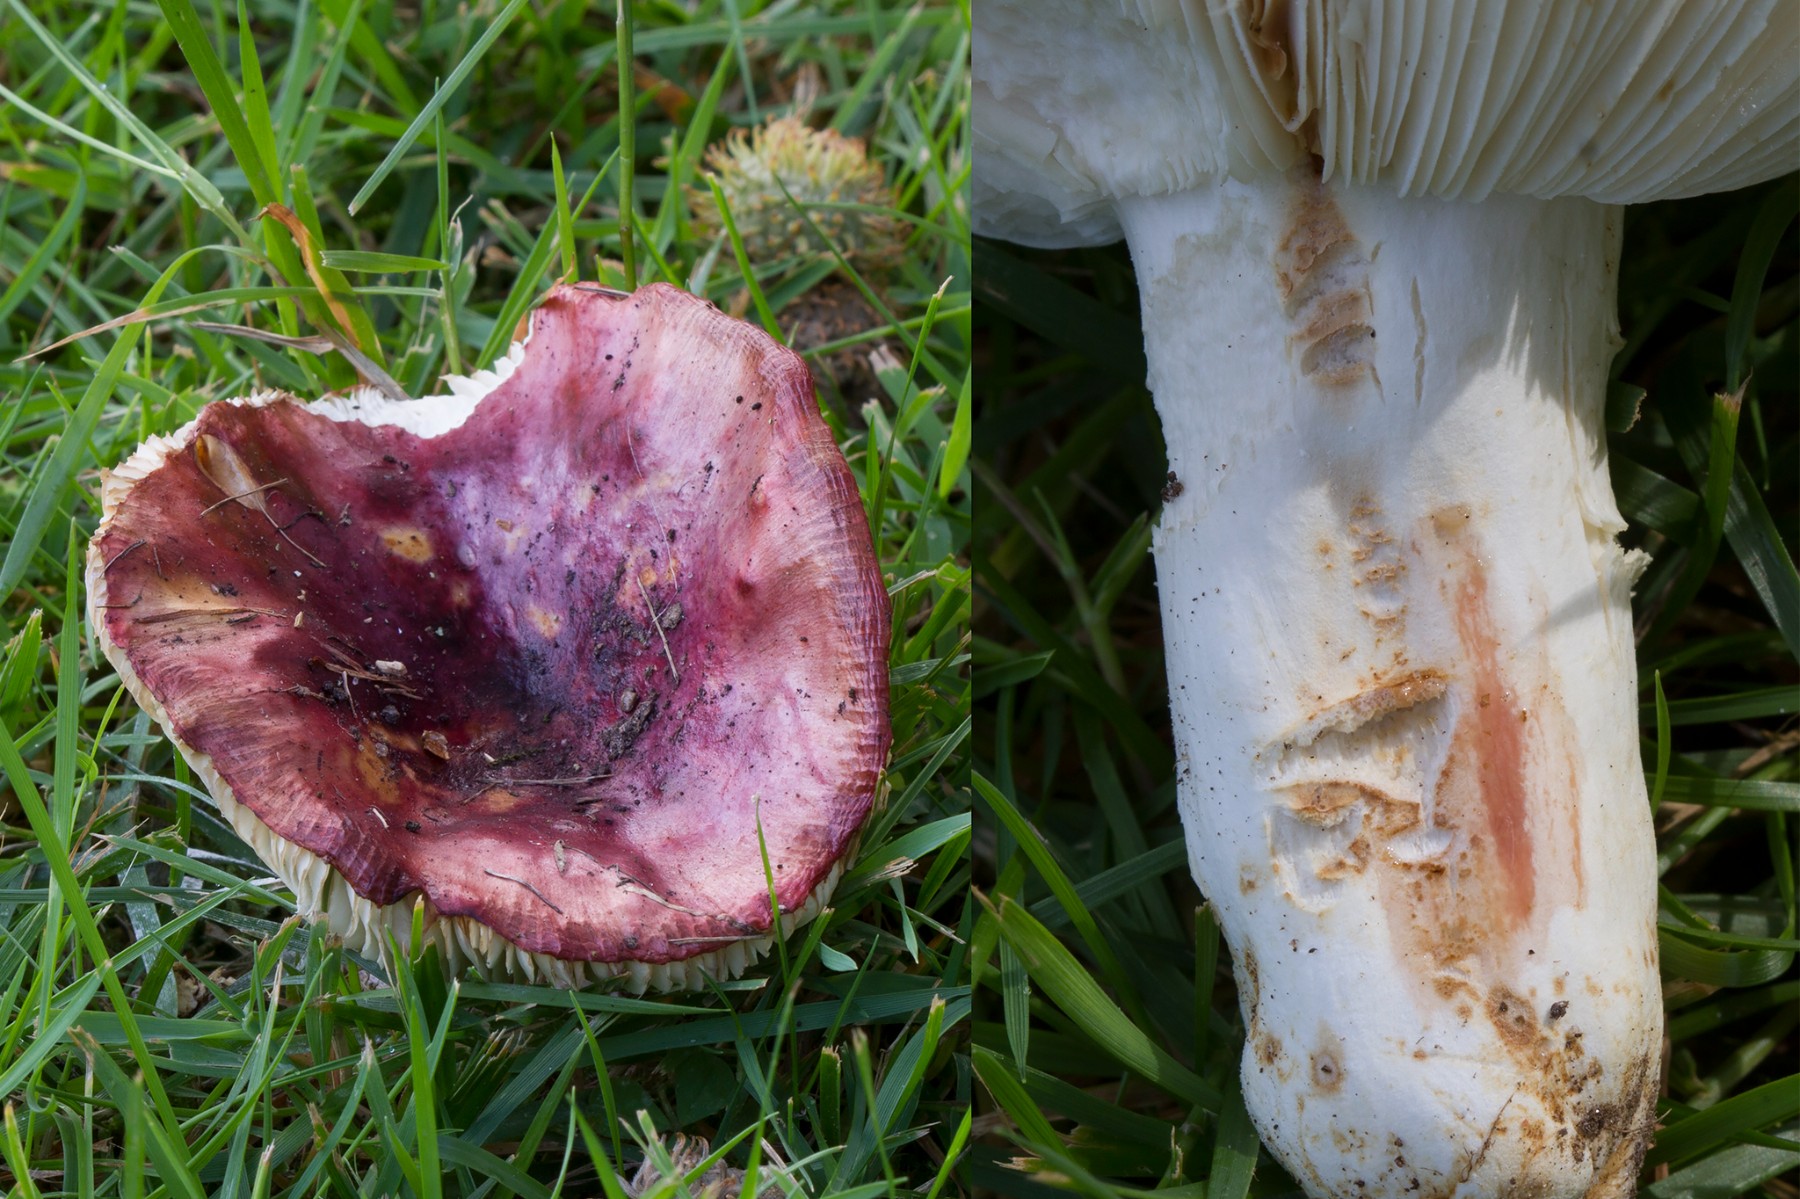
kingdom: Fungi
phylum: Basidiomycota
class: Agaricomycetes
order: Russulales
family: Russulaceae
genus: Russula
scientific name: Russula atropurpurea
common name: purpurbroget skørhat
